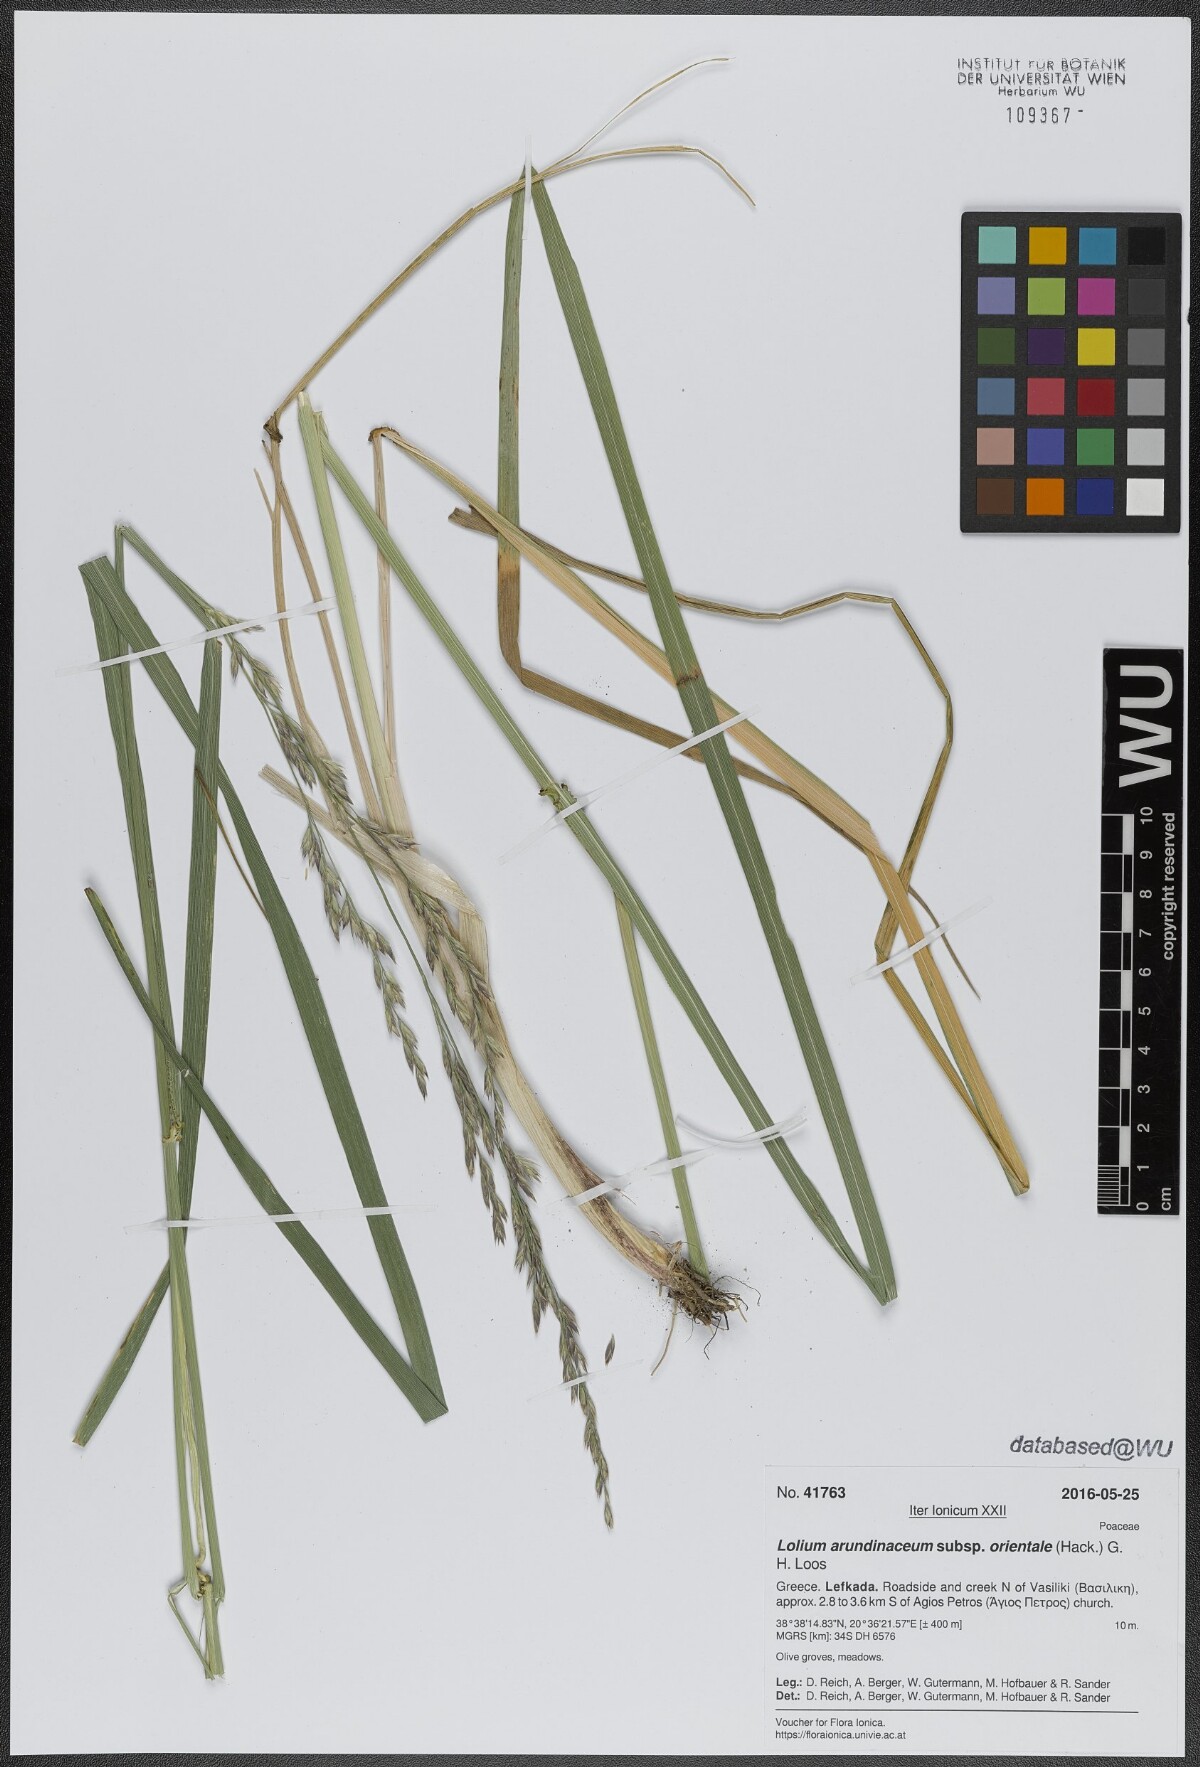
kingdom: Plantae
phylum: Tracheophyta
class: Liliopsida
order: Poales
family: Poaceae
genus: Lolium
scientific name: Lolium arundinaceum
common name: Reed fescue
